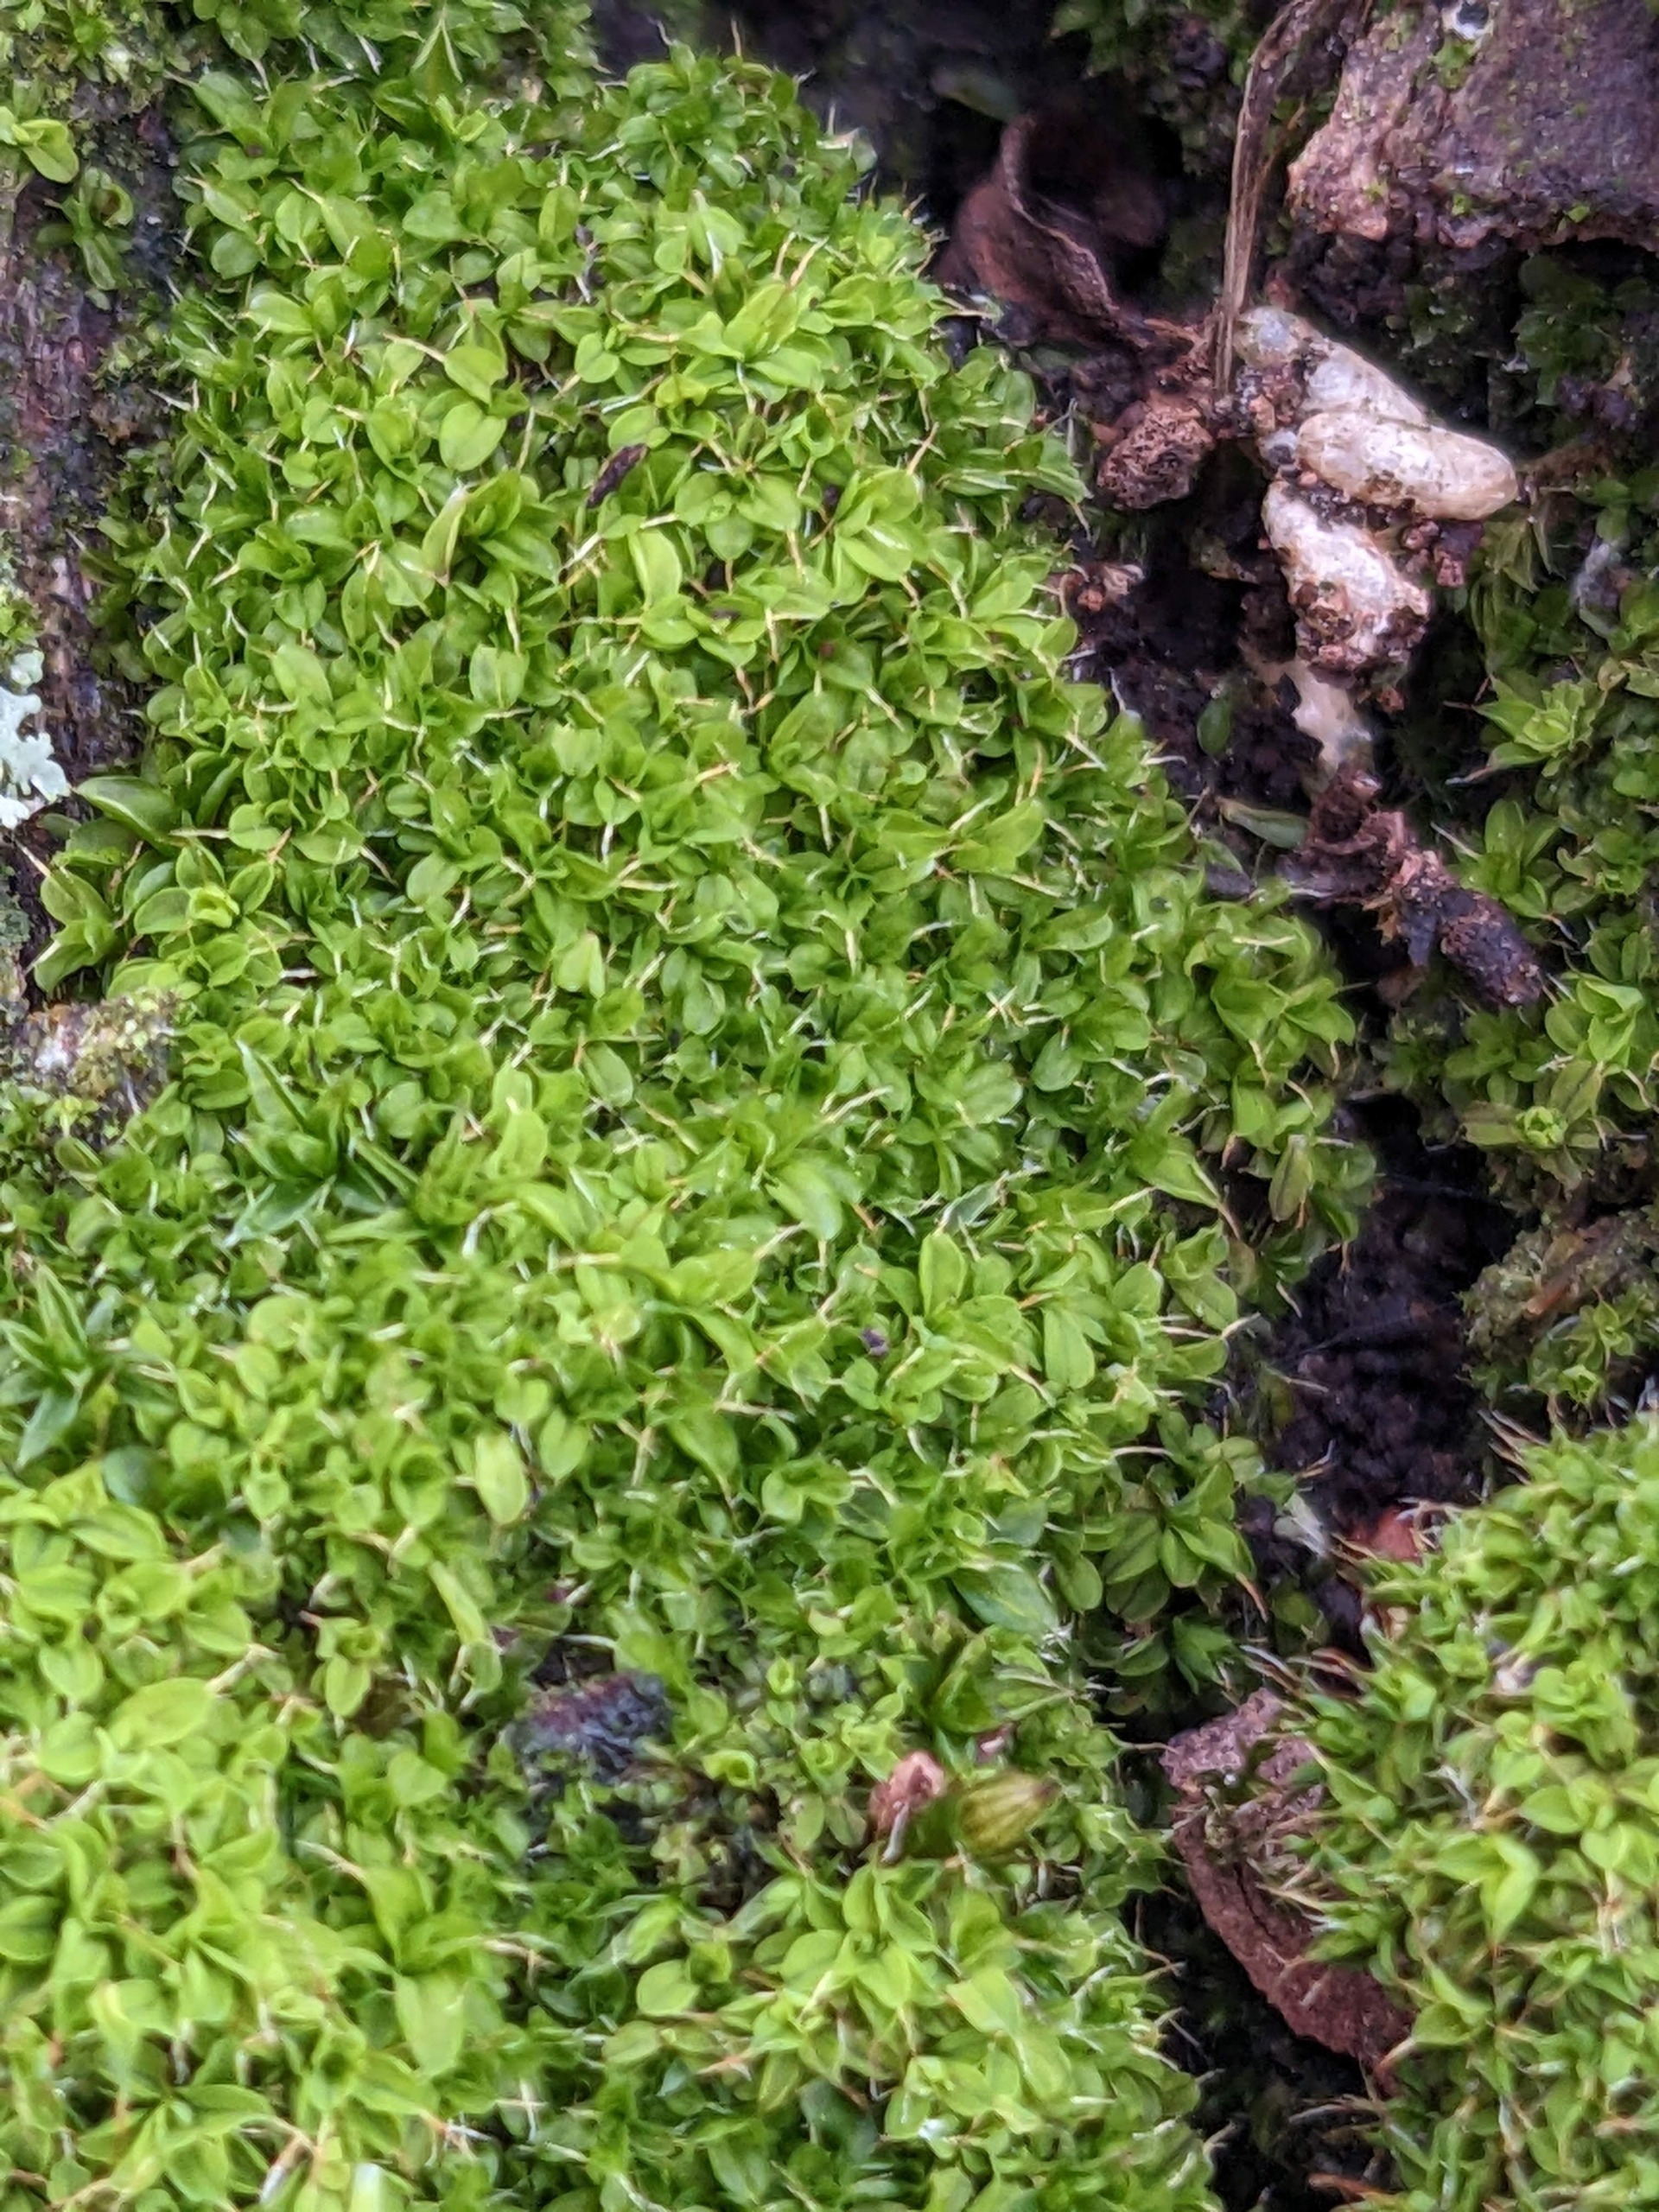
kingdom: Plantae
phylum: Bryophyta
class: Bryopsida
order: Pottiales
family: Pottiaceae
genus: Syntrichia
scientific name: Syntrichia virescens
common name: Grøn hårstjerne
